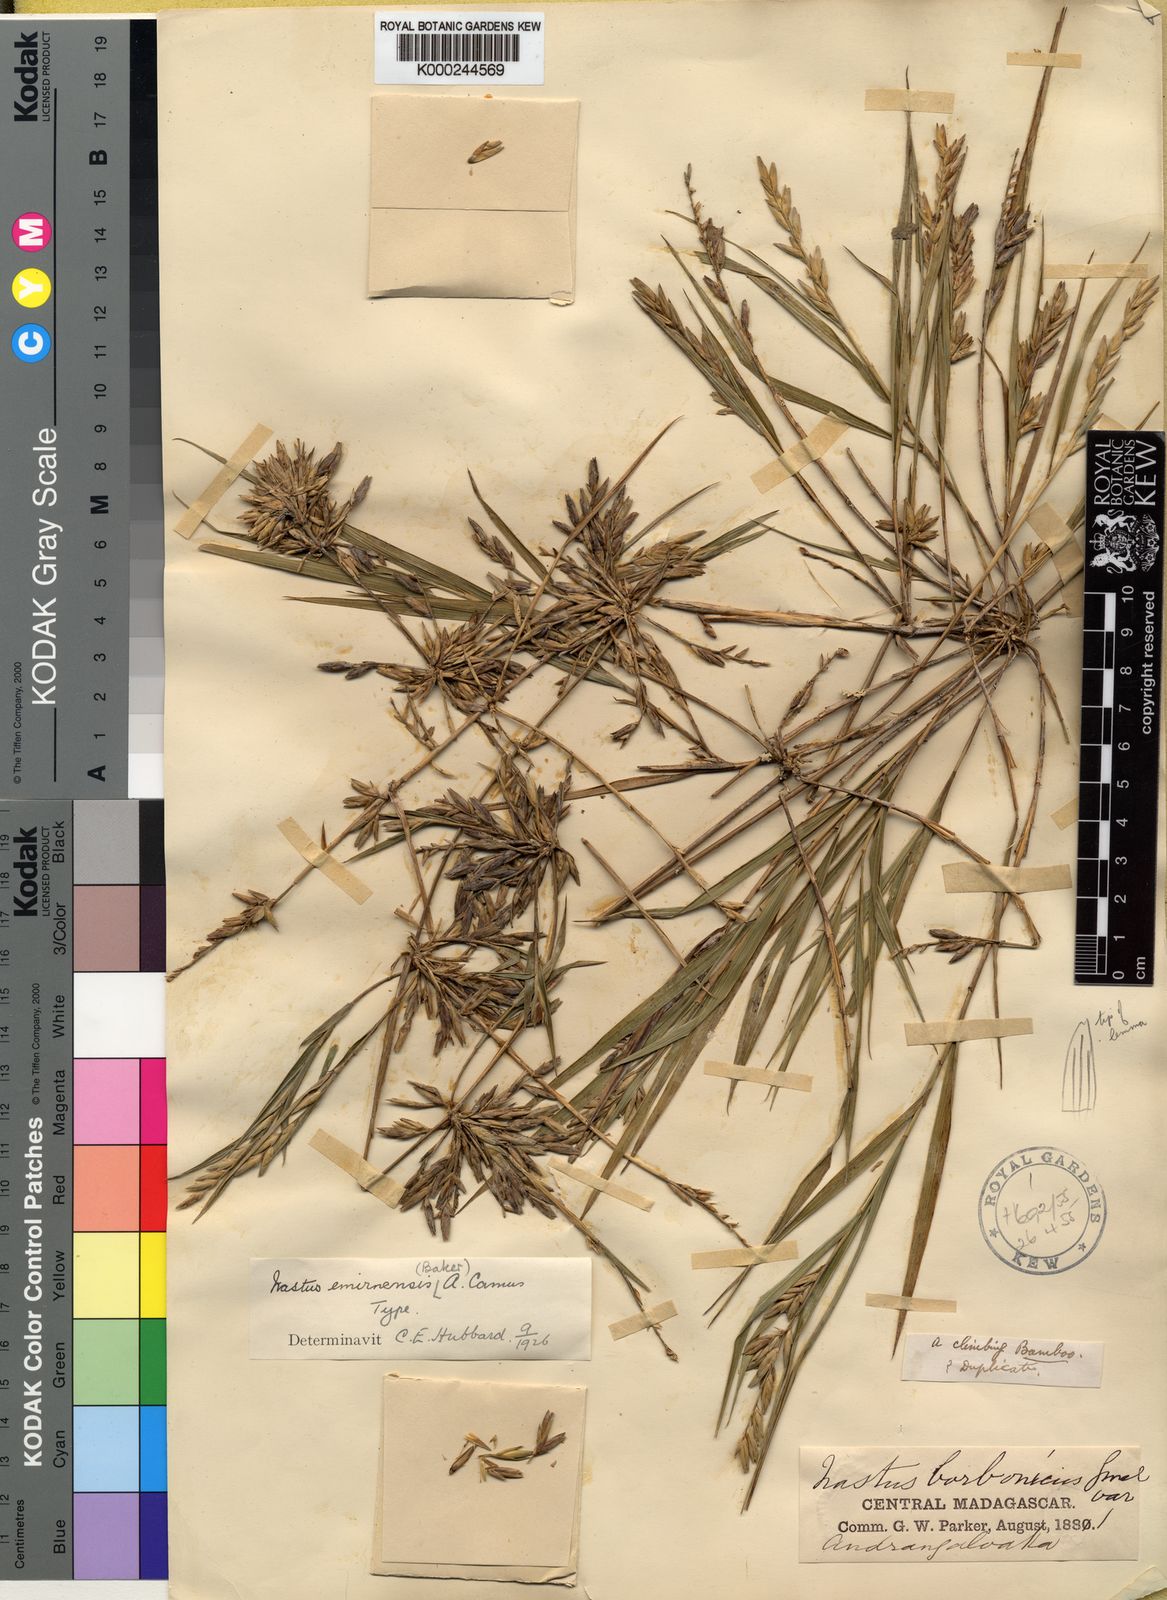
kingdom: Plantae
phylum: Tracheophyta
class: Liliopsida
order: Poales
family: Poaceae
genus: Nastus
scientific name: Nastus emirnensis
